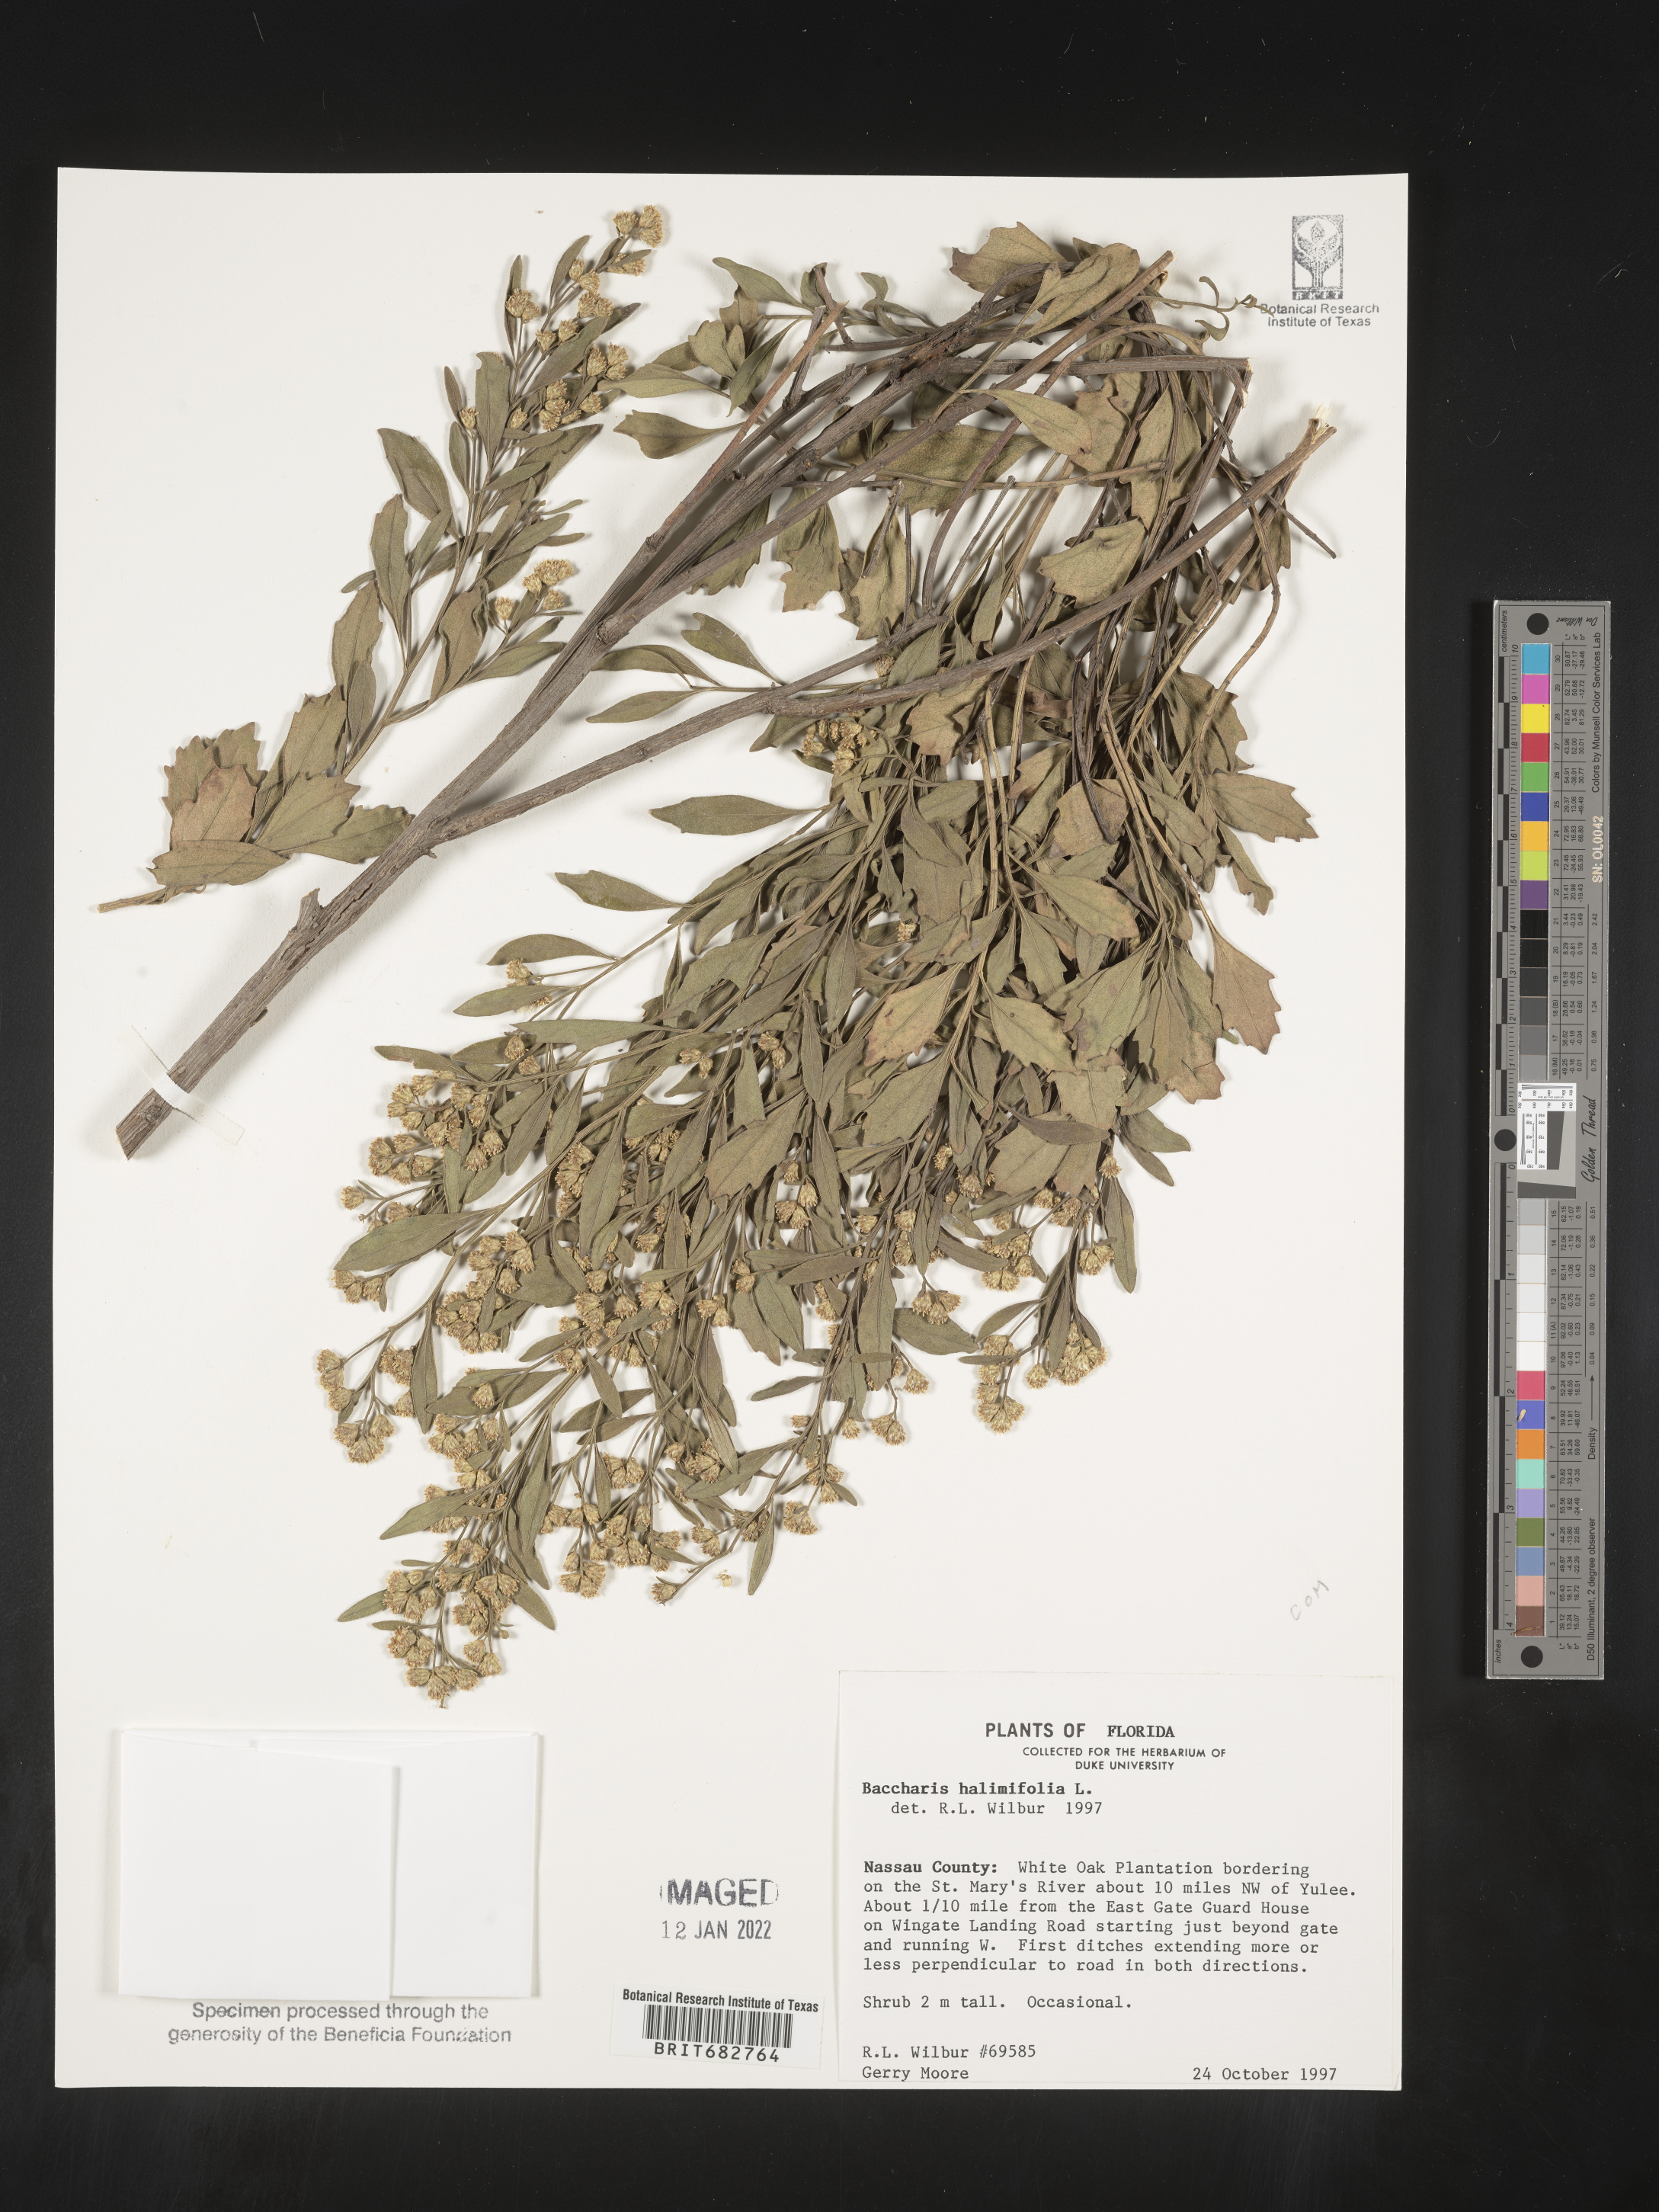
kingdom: Plantae
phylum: Tracheophyta
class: Magnoliopsida
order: Asterales
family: Asteraceae
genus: Nidorella
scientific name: Nidorella ivifolia
